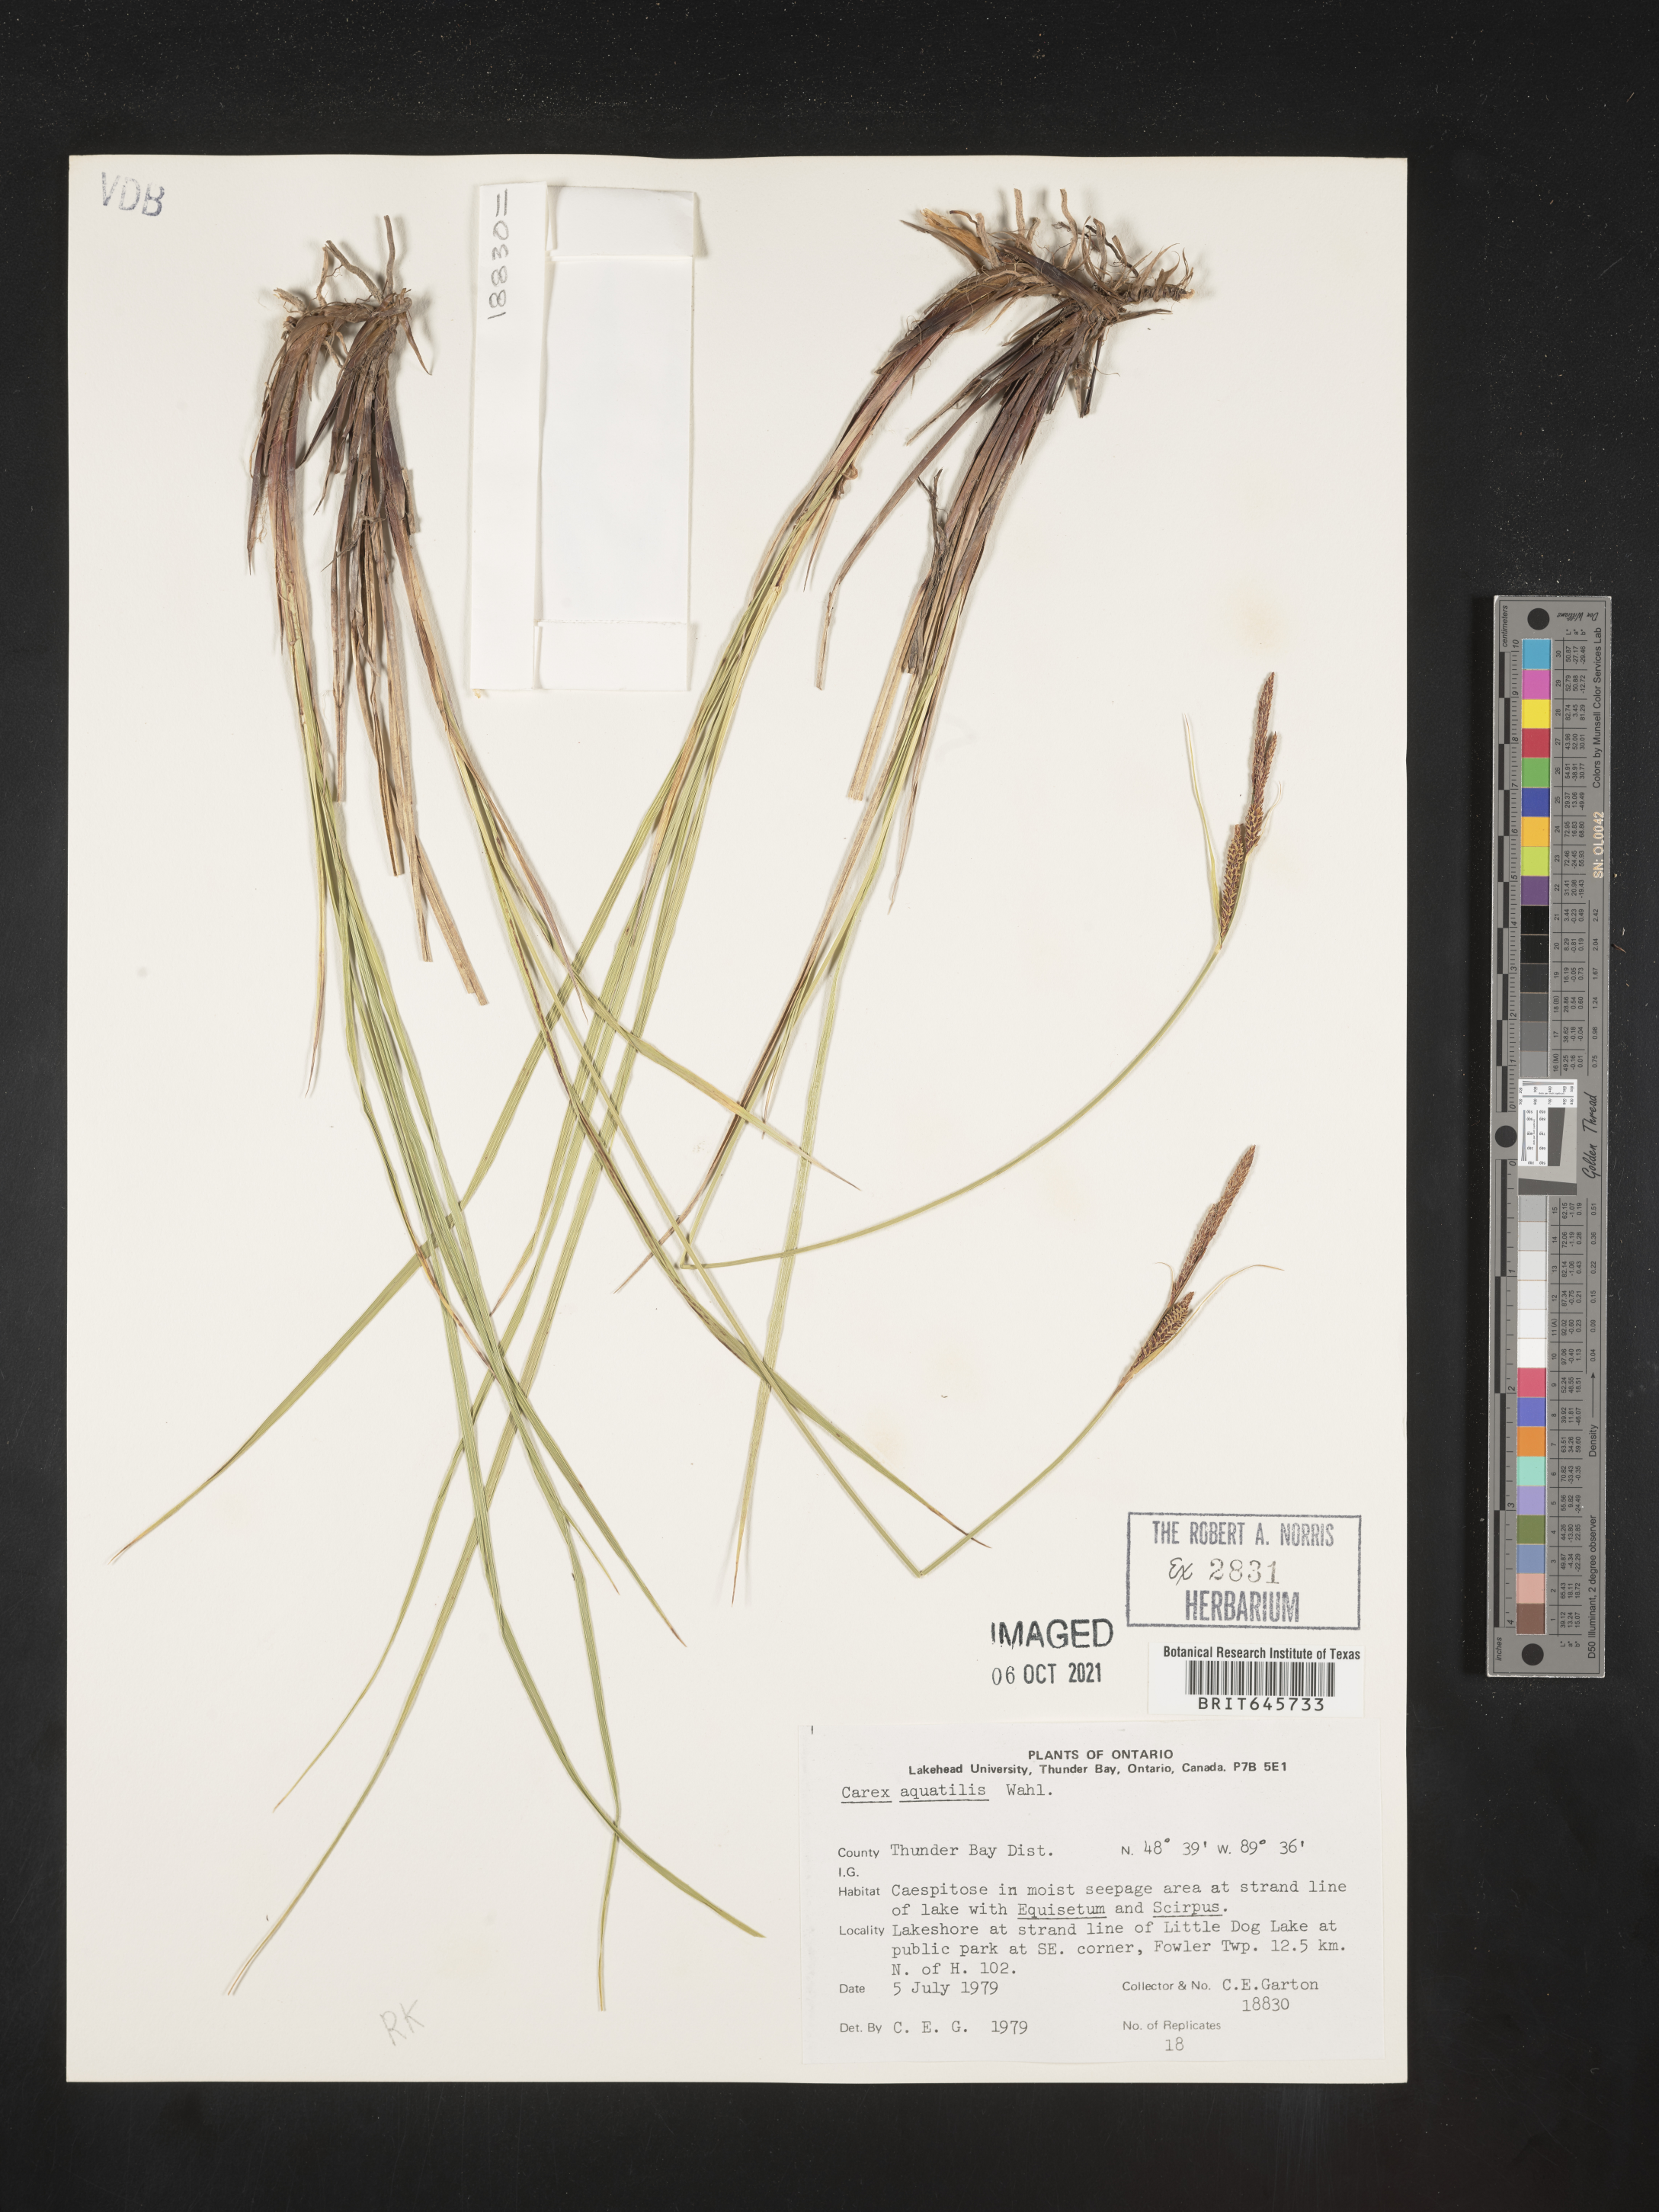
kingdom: Plantae
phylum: Tracheophyta
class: Liliopsida
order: Poales
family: Cyperaceae
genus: Carex
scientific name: Carex aquatilis
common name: Water sedge
